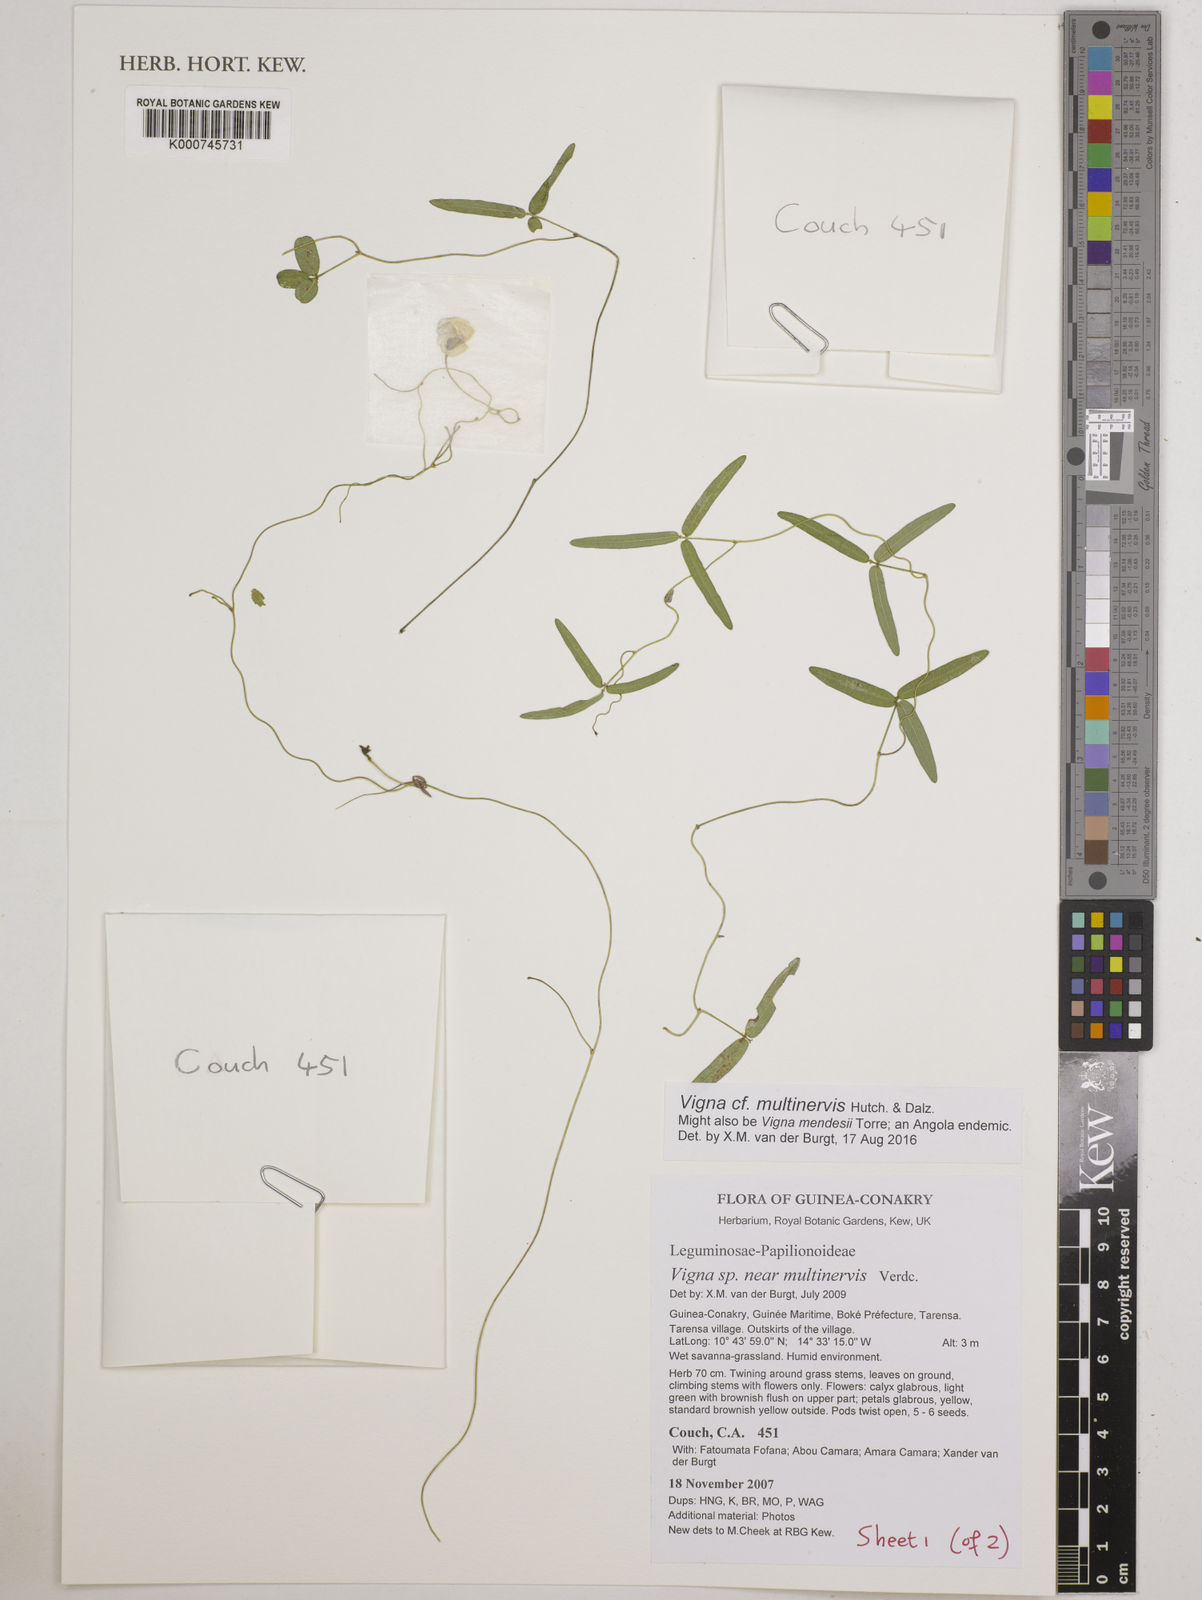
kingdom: Plantae
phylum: Tracheophyta
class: Magnoliopsida
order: Fabales
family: Fabaceae
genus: Vigna
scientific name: Vigna multinervis
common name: Fula-pulaar
